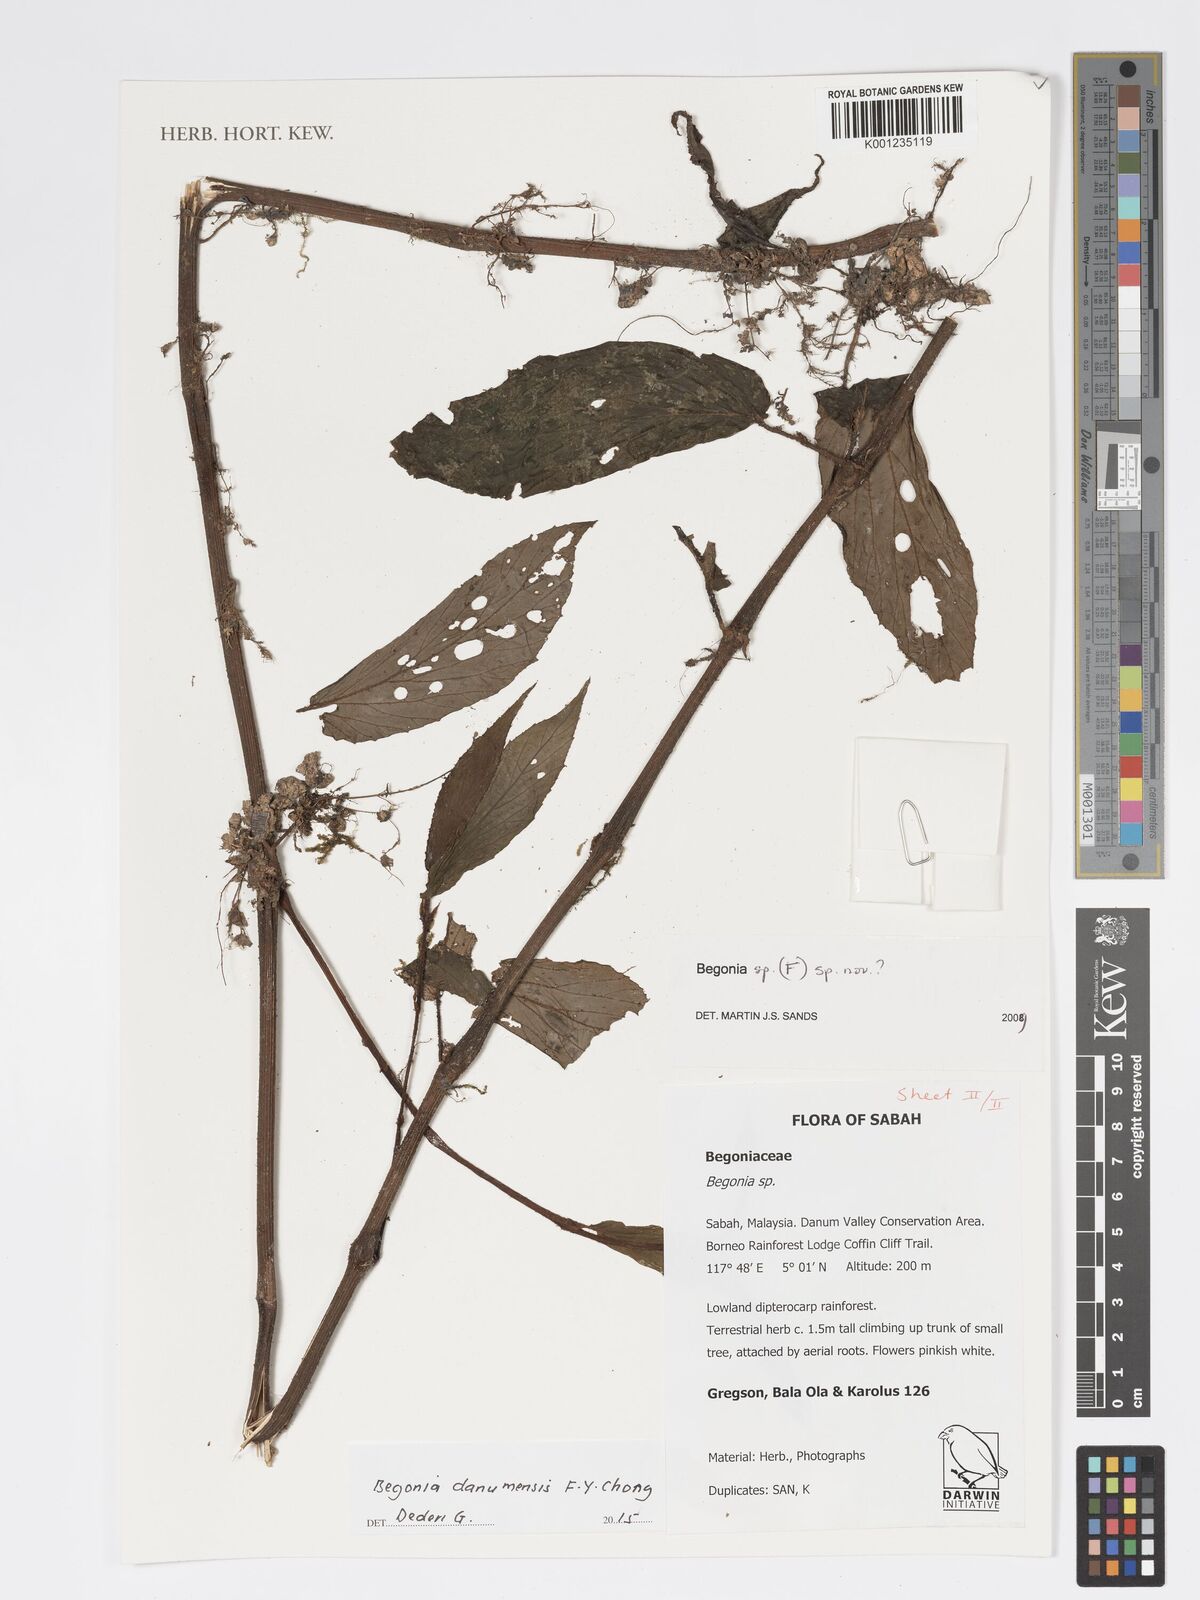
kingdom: Plantae
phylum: Tracheophyta
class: Magnoliopsida
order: Cucurbitales
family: Begoniaceae
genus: Begonia
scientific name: Begonia danumensis
